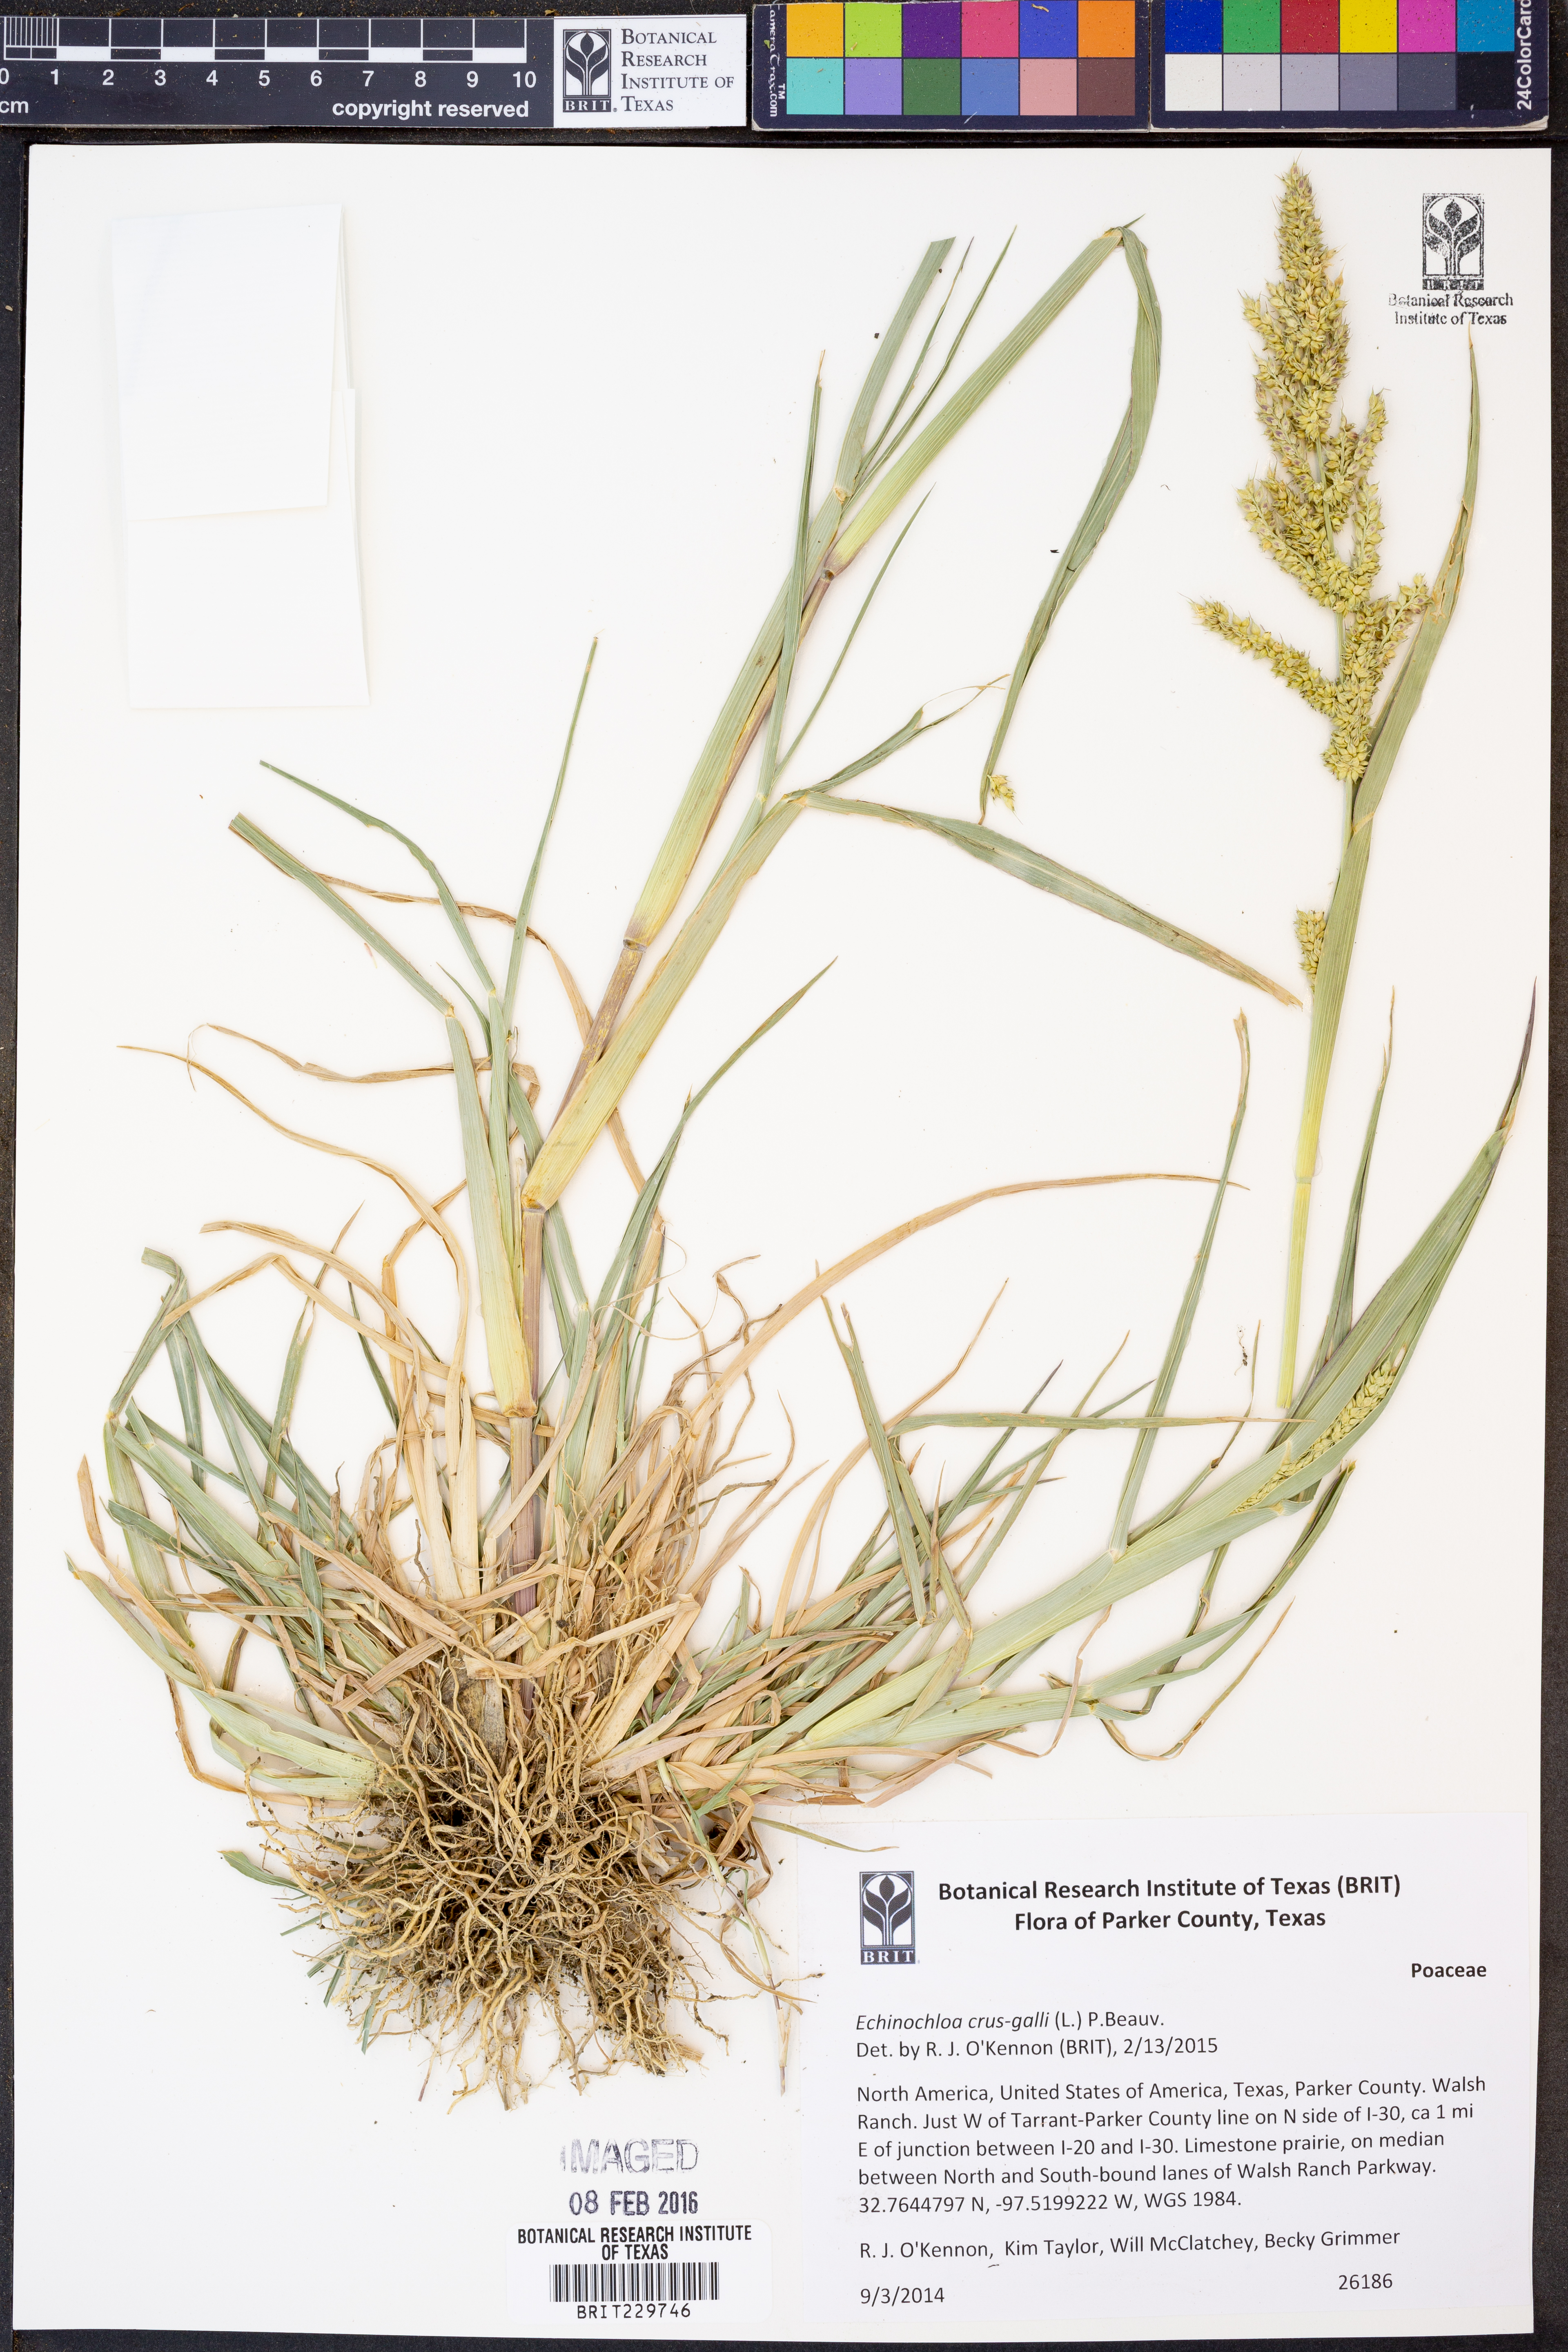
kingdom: Plantae
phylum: Tracheophyta
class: Liliopsida
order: Poales
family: Poaceae
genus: Echinochloa
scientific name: Echinochloa crus-galli
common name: Cockspur
